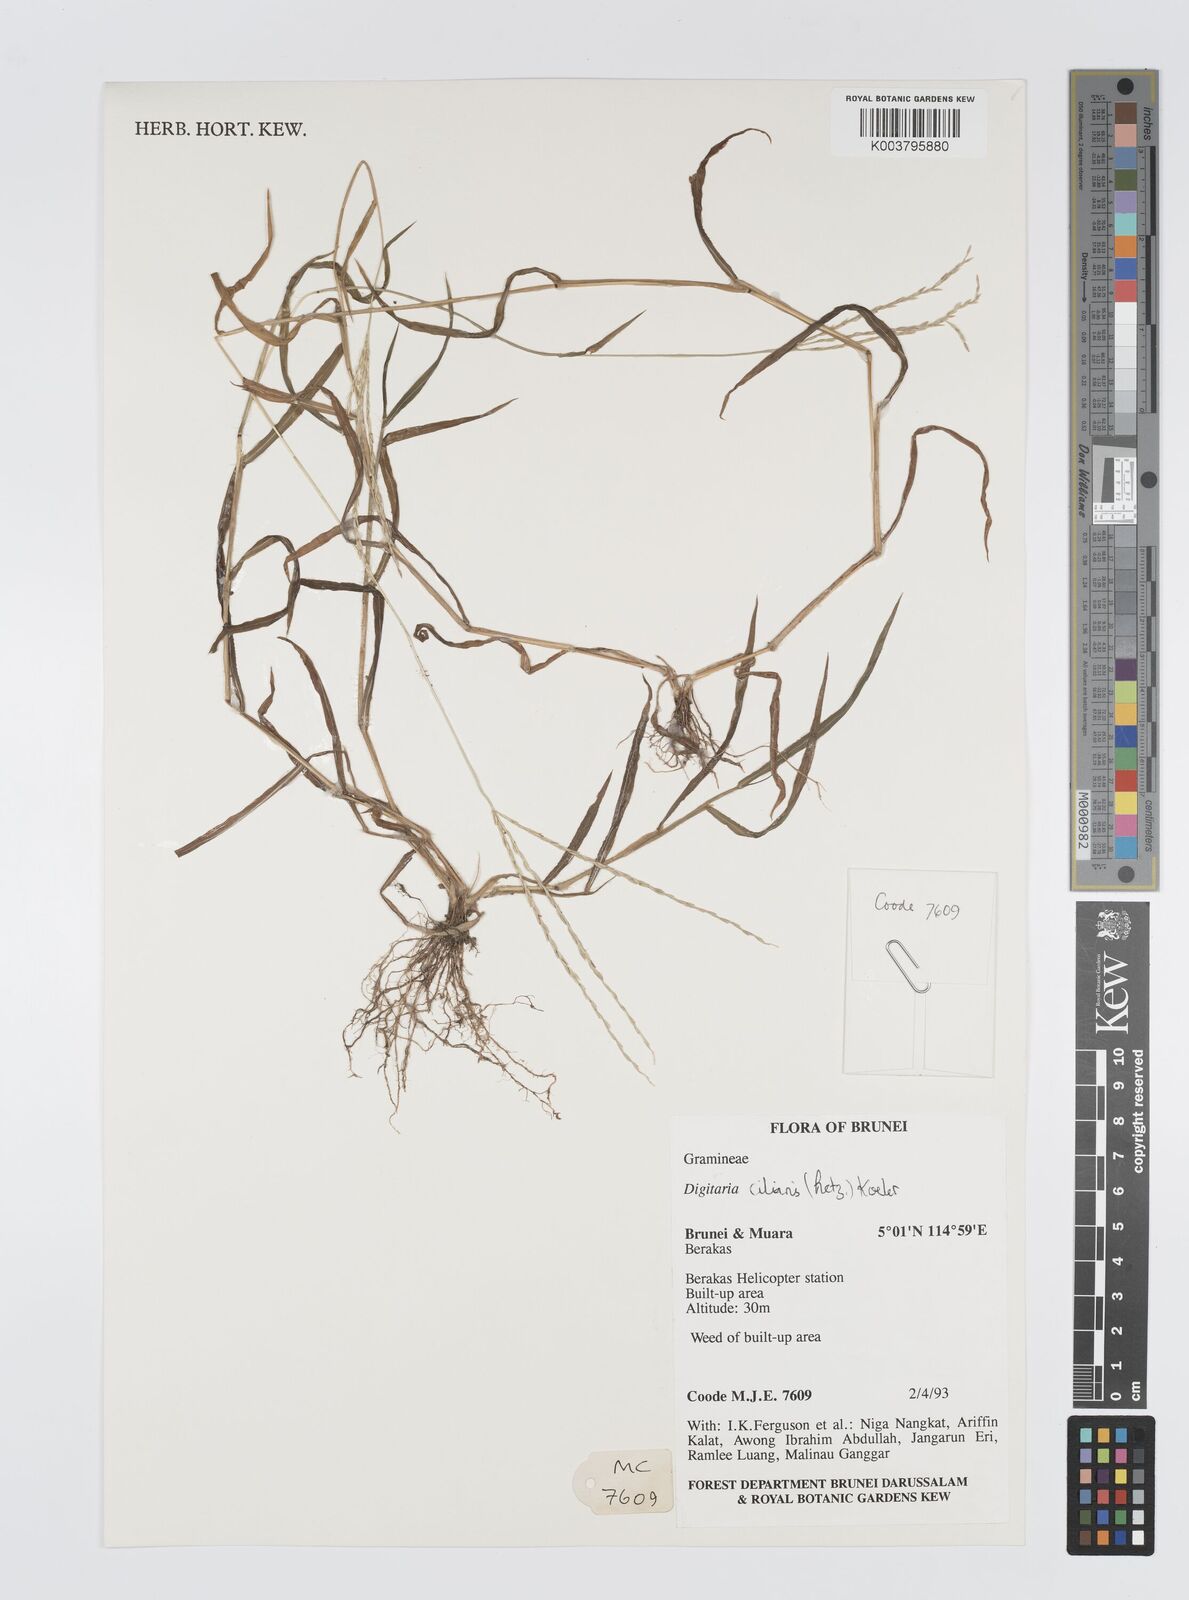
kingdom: Plantae
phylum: Tracheophyta
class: Liliopsida
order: Poales
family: Poaceae
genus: Digitaria
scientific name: Digitaria ciliaris
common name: Tropical finger-grass
